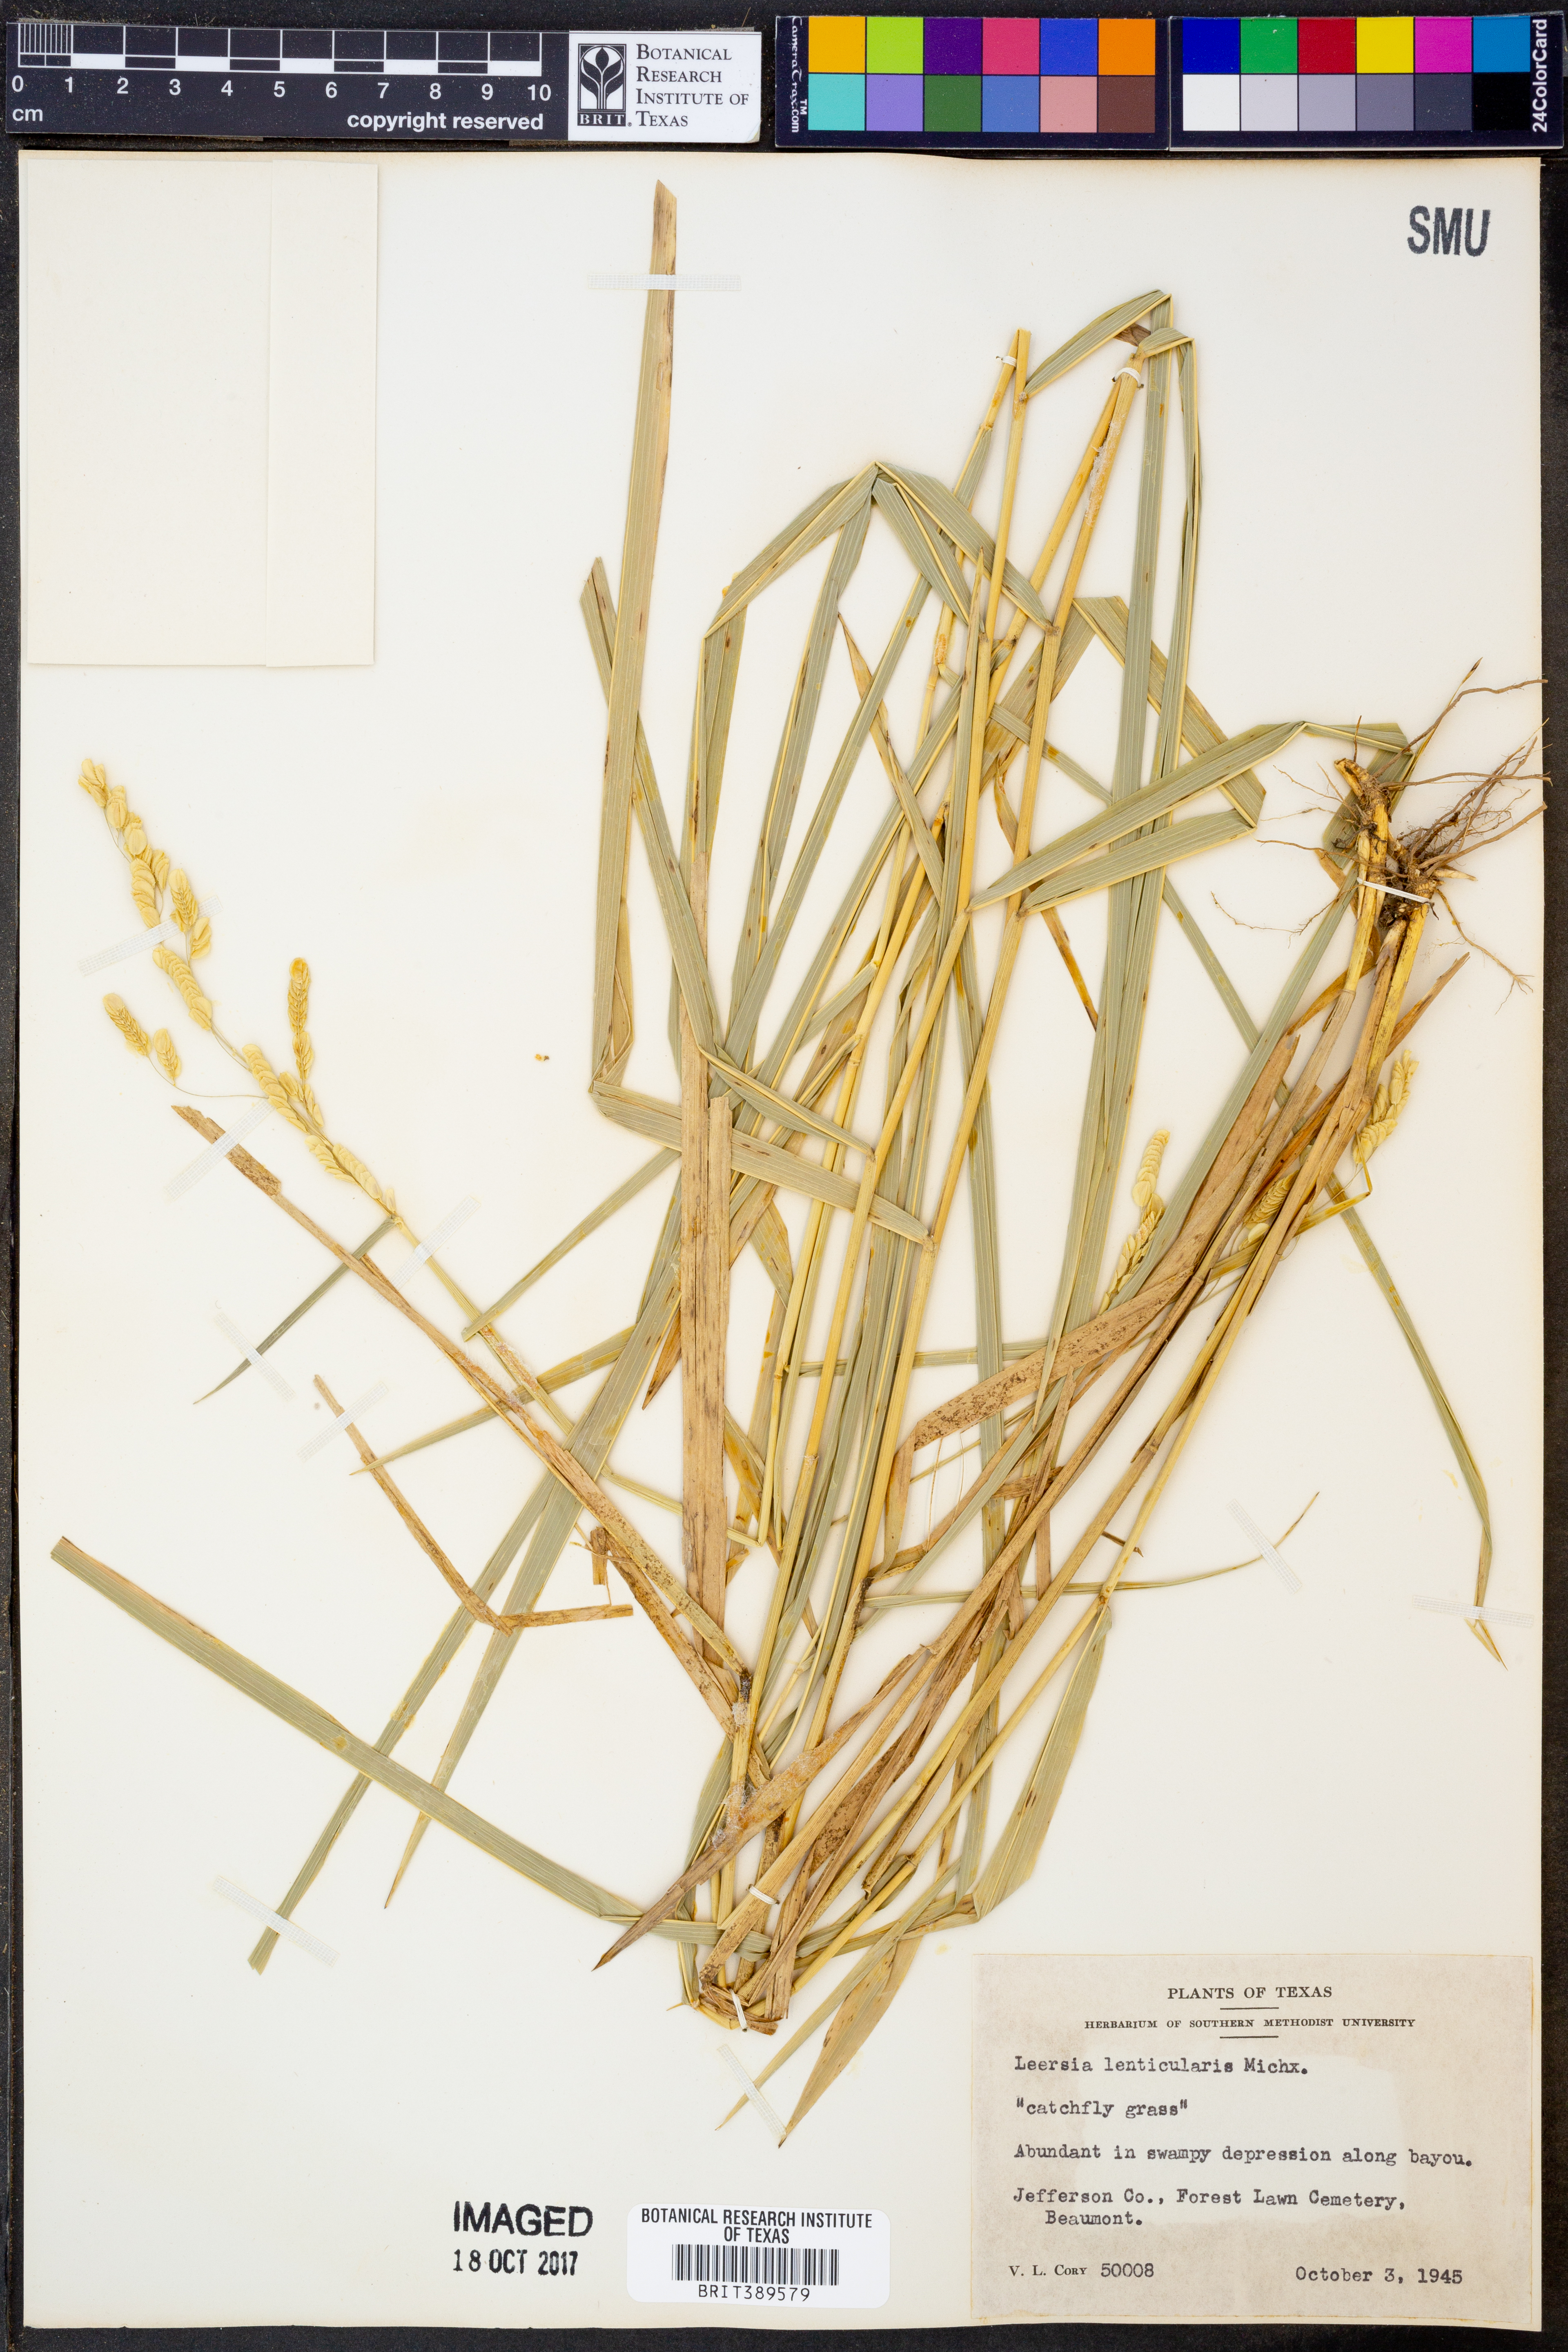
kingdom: Plantae
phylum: Tracheophyta
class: Liliopsida
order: Poales
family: Poaceae
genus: Leersia
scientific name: Leersia lenticularis
